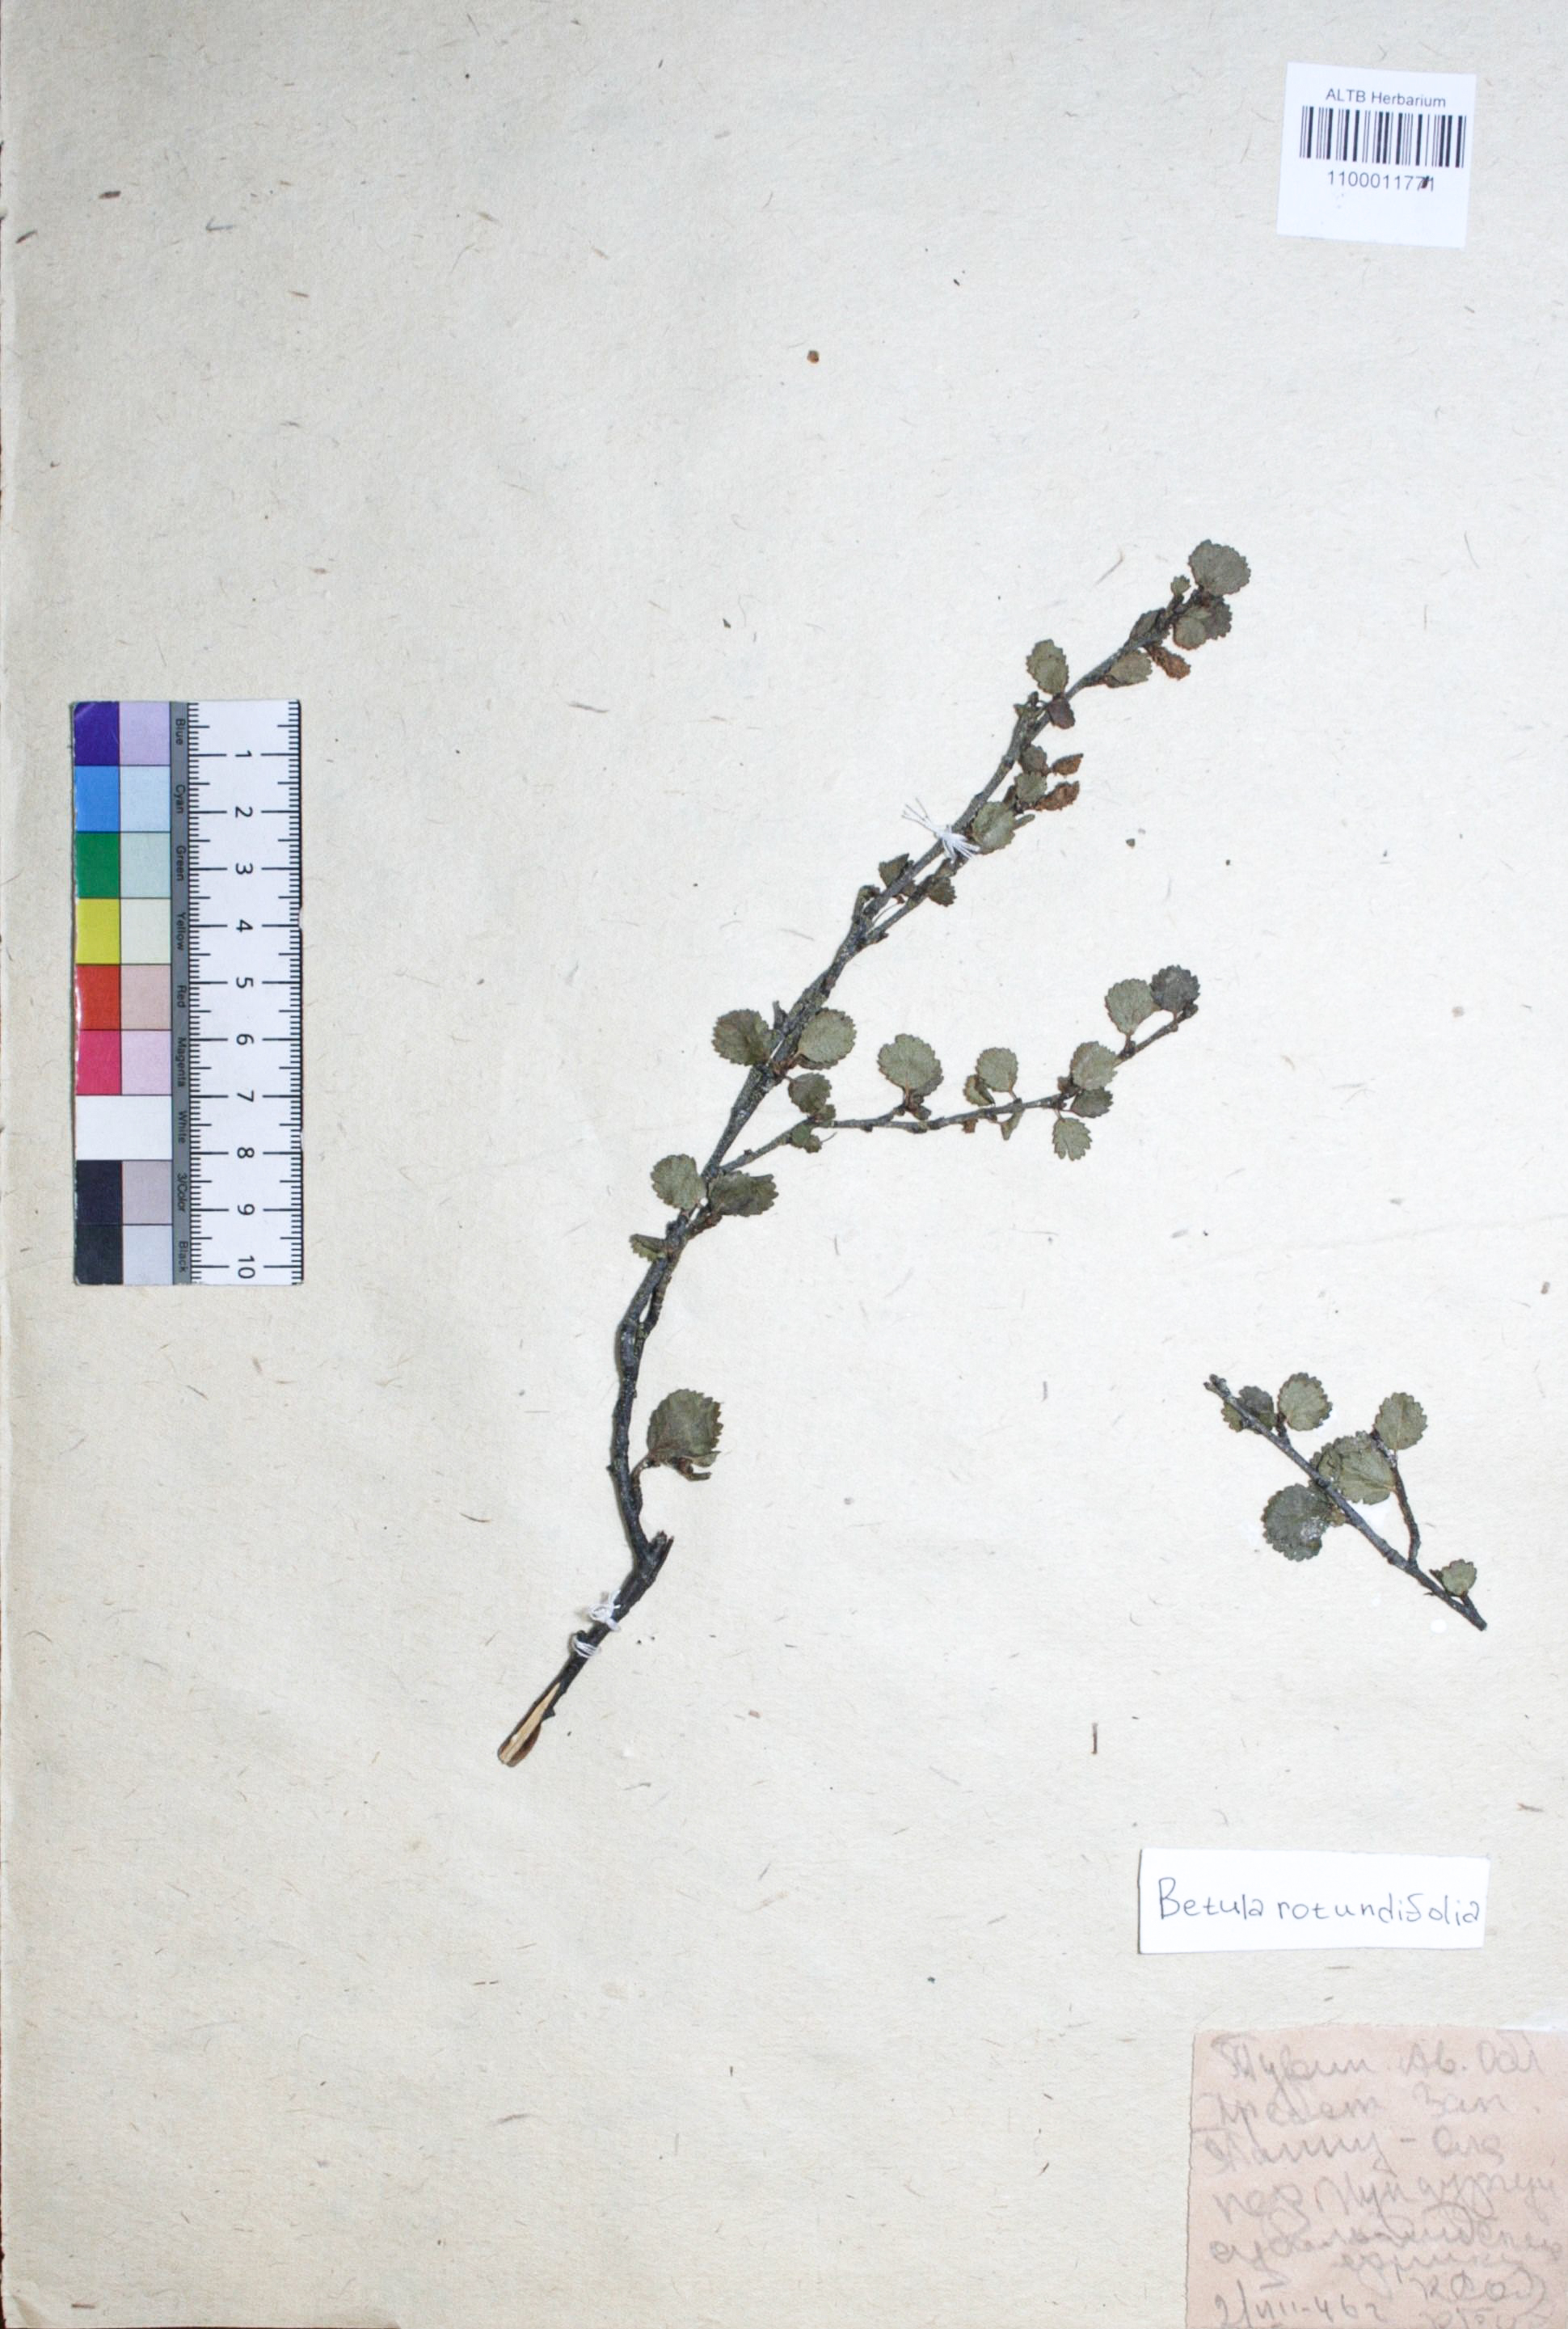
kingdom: Plantae
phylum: Tracheophyta
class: Magnoliopsida
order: Fagales
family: Betulaceae
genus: Betula
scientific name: Betula glandulosa
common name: Dwarf birch
